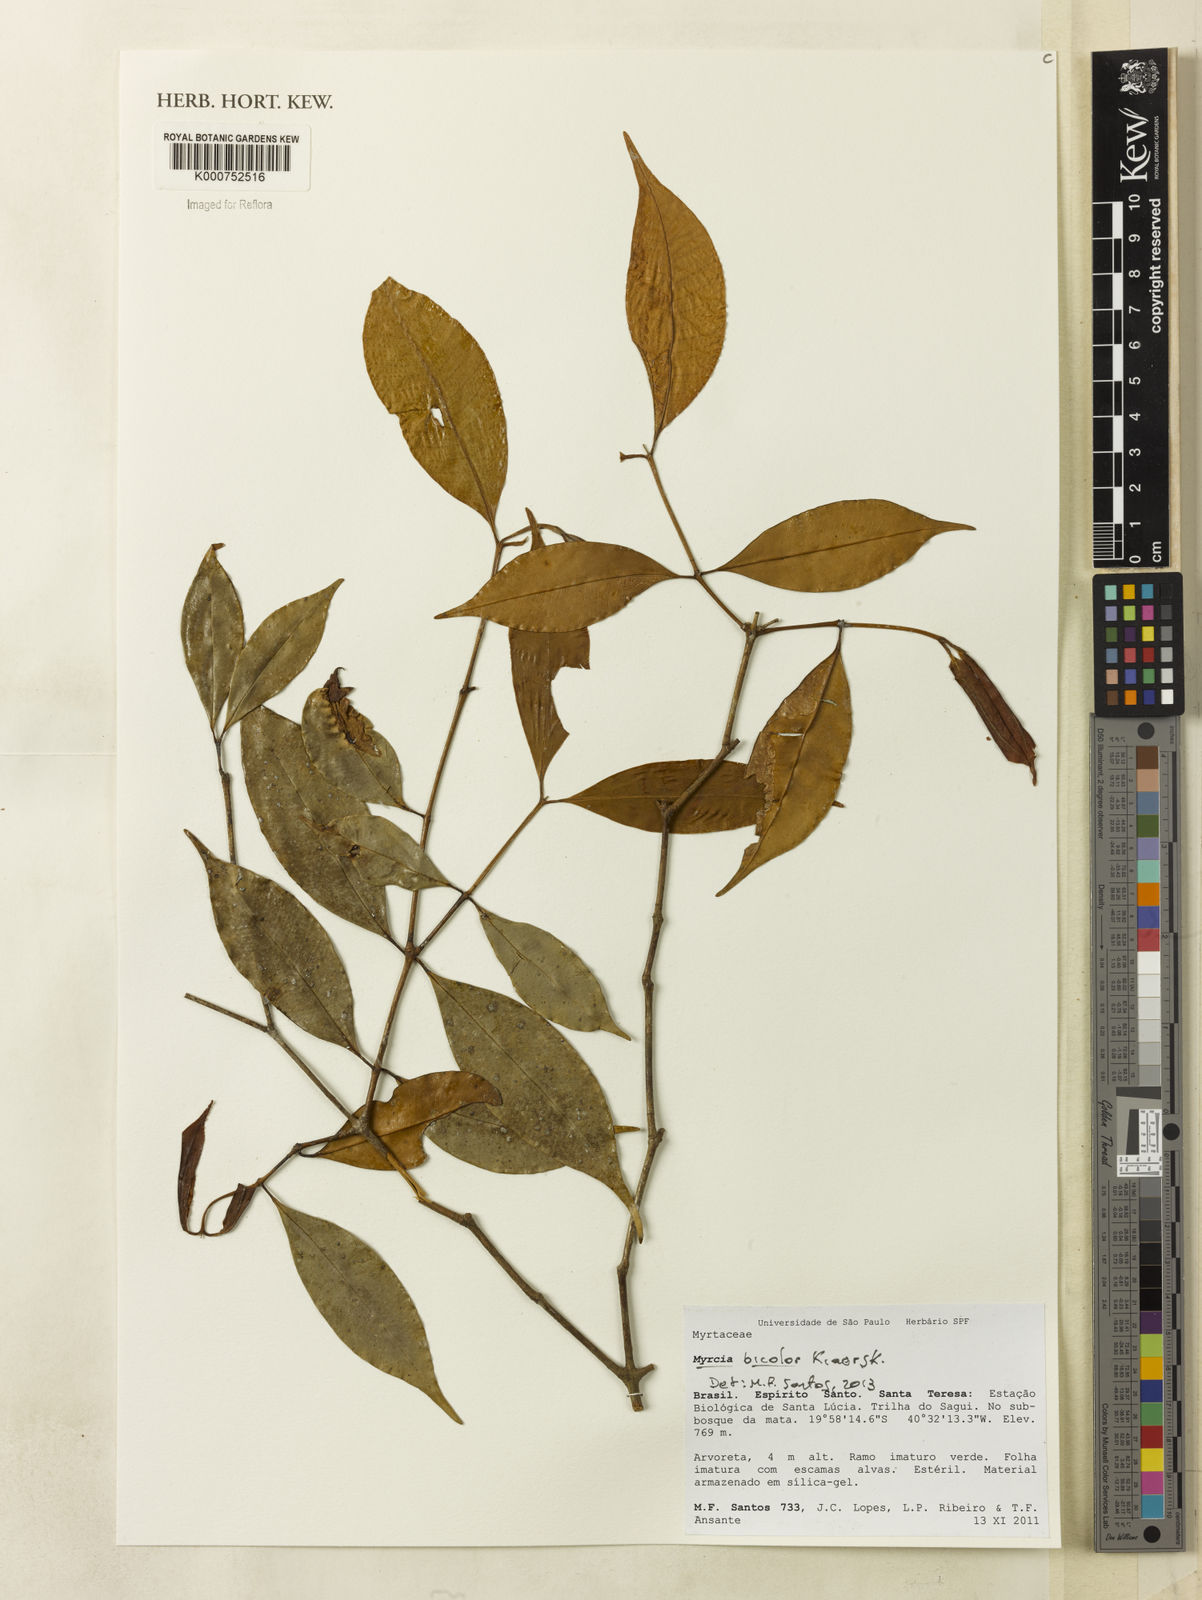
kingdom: Plantae
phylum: Tracheophyta
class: Magnoliopsida
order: Myrtales
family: Myrtaceae
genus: Myrcia
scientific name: Myrcia subterminalis
